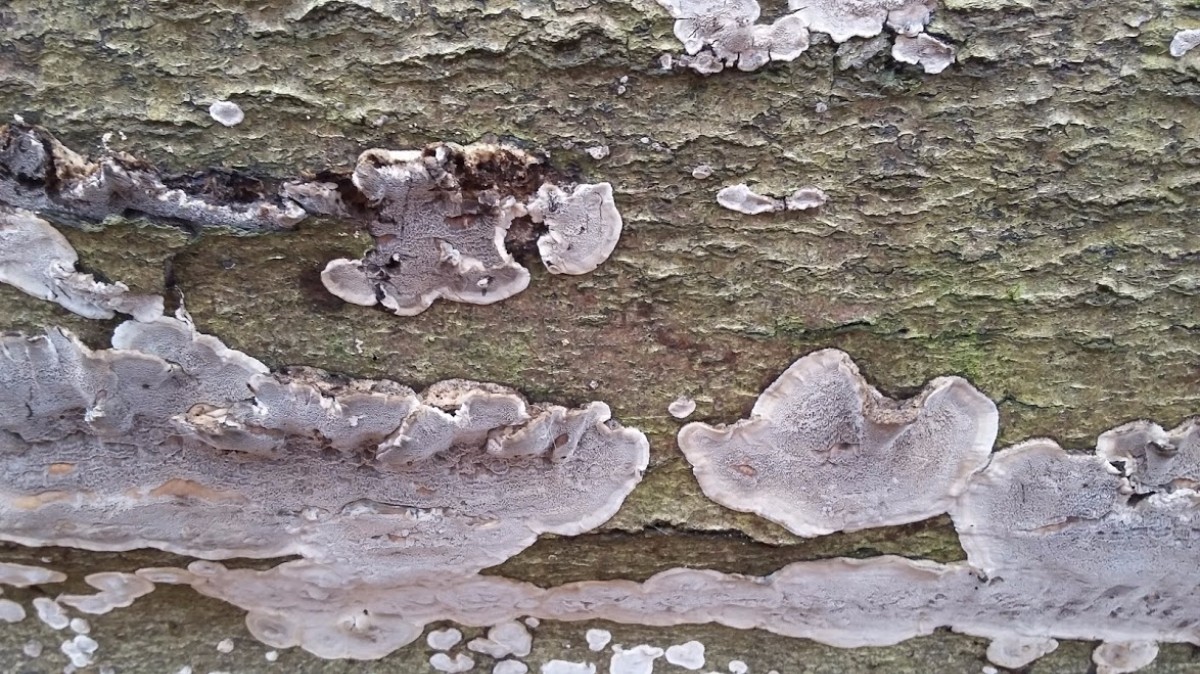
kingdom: Fungi
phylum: Basidiomycota
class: Agaricomycetes
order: Polyporales
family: Phanerochaetaceae
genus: Bjerkandera
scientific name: Bjerkandera adusta
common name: sveden sodporesvamp
